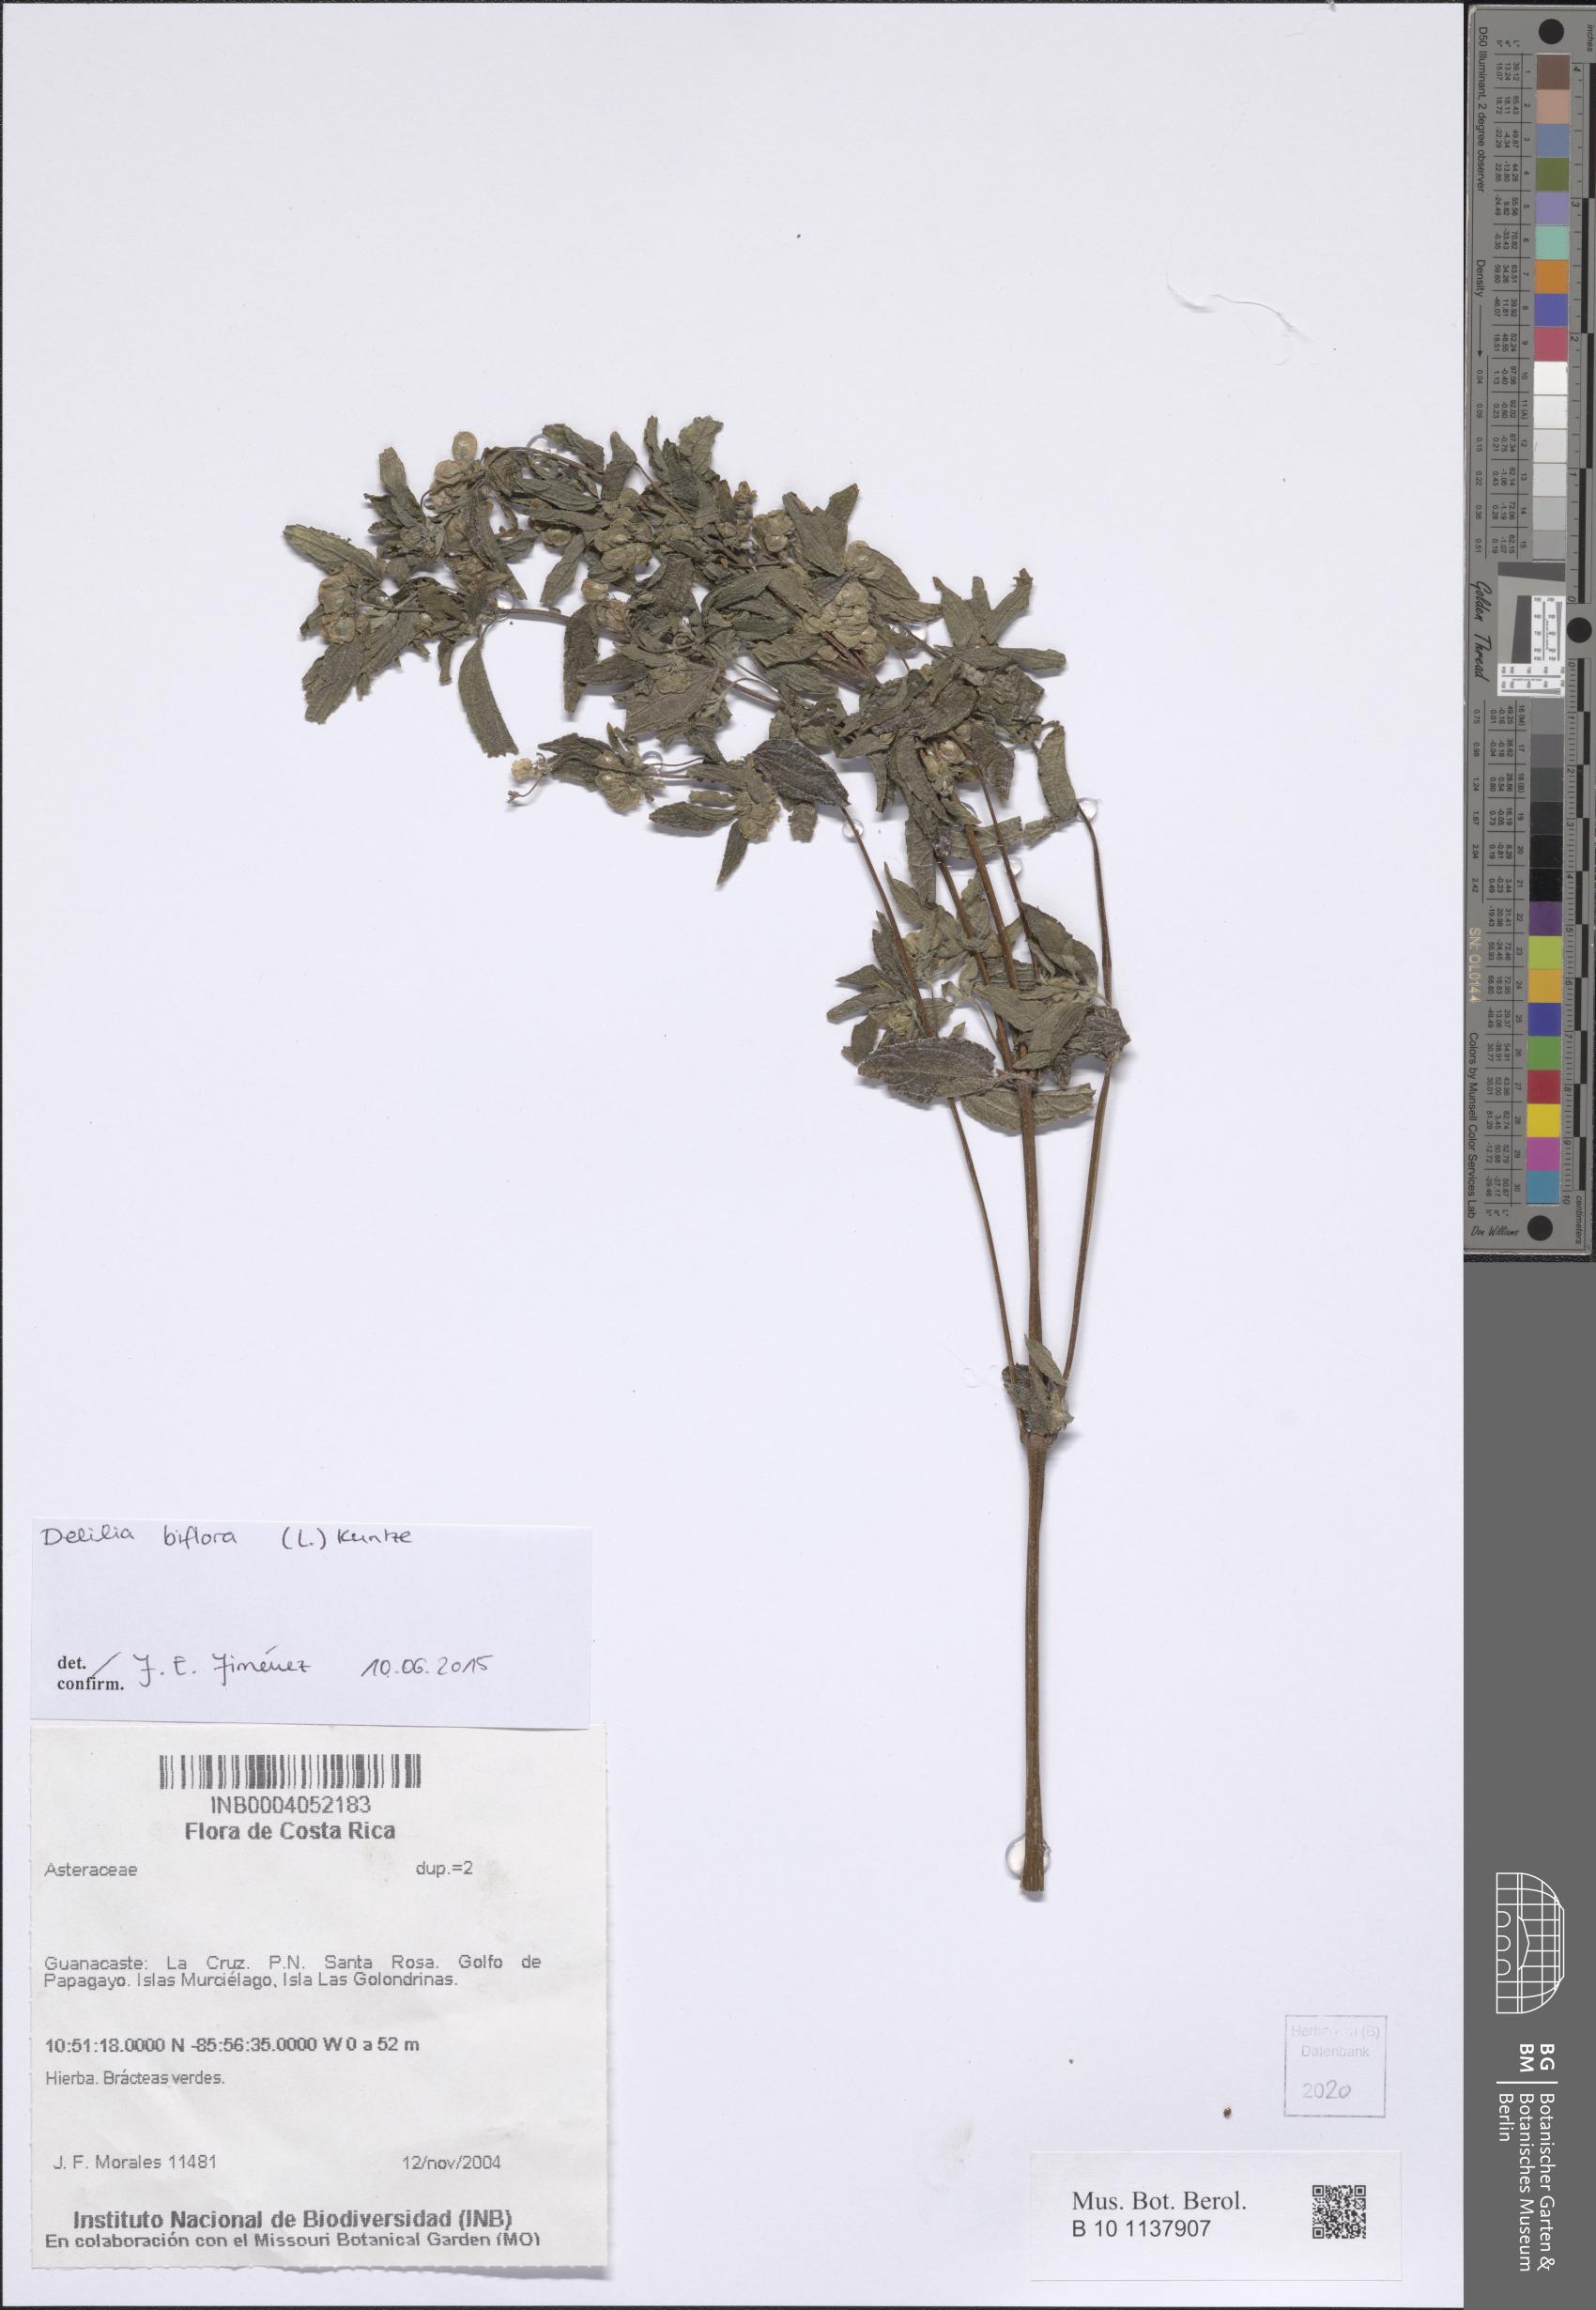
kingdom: Plantae
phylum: Tracheophyta
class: Magnoliopsida
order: Asterales
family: Asteraceae
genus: Delilia
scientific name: Delilia biflora
